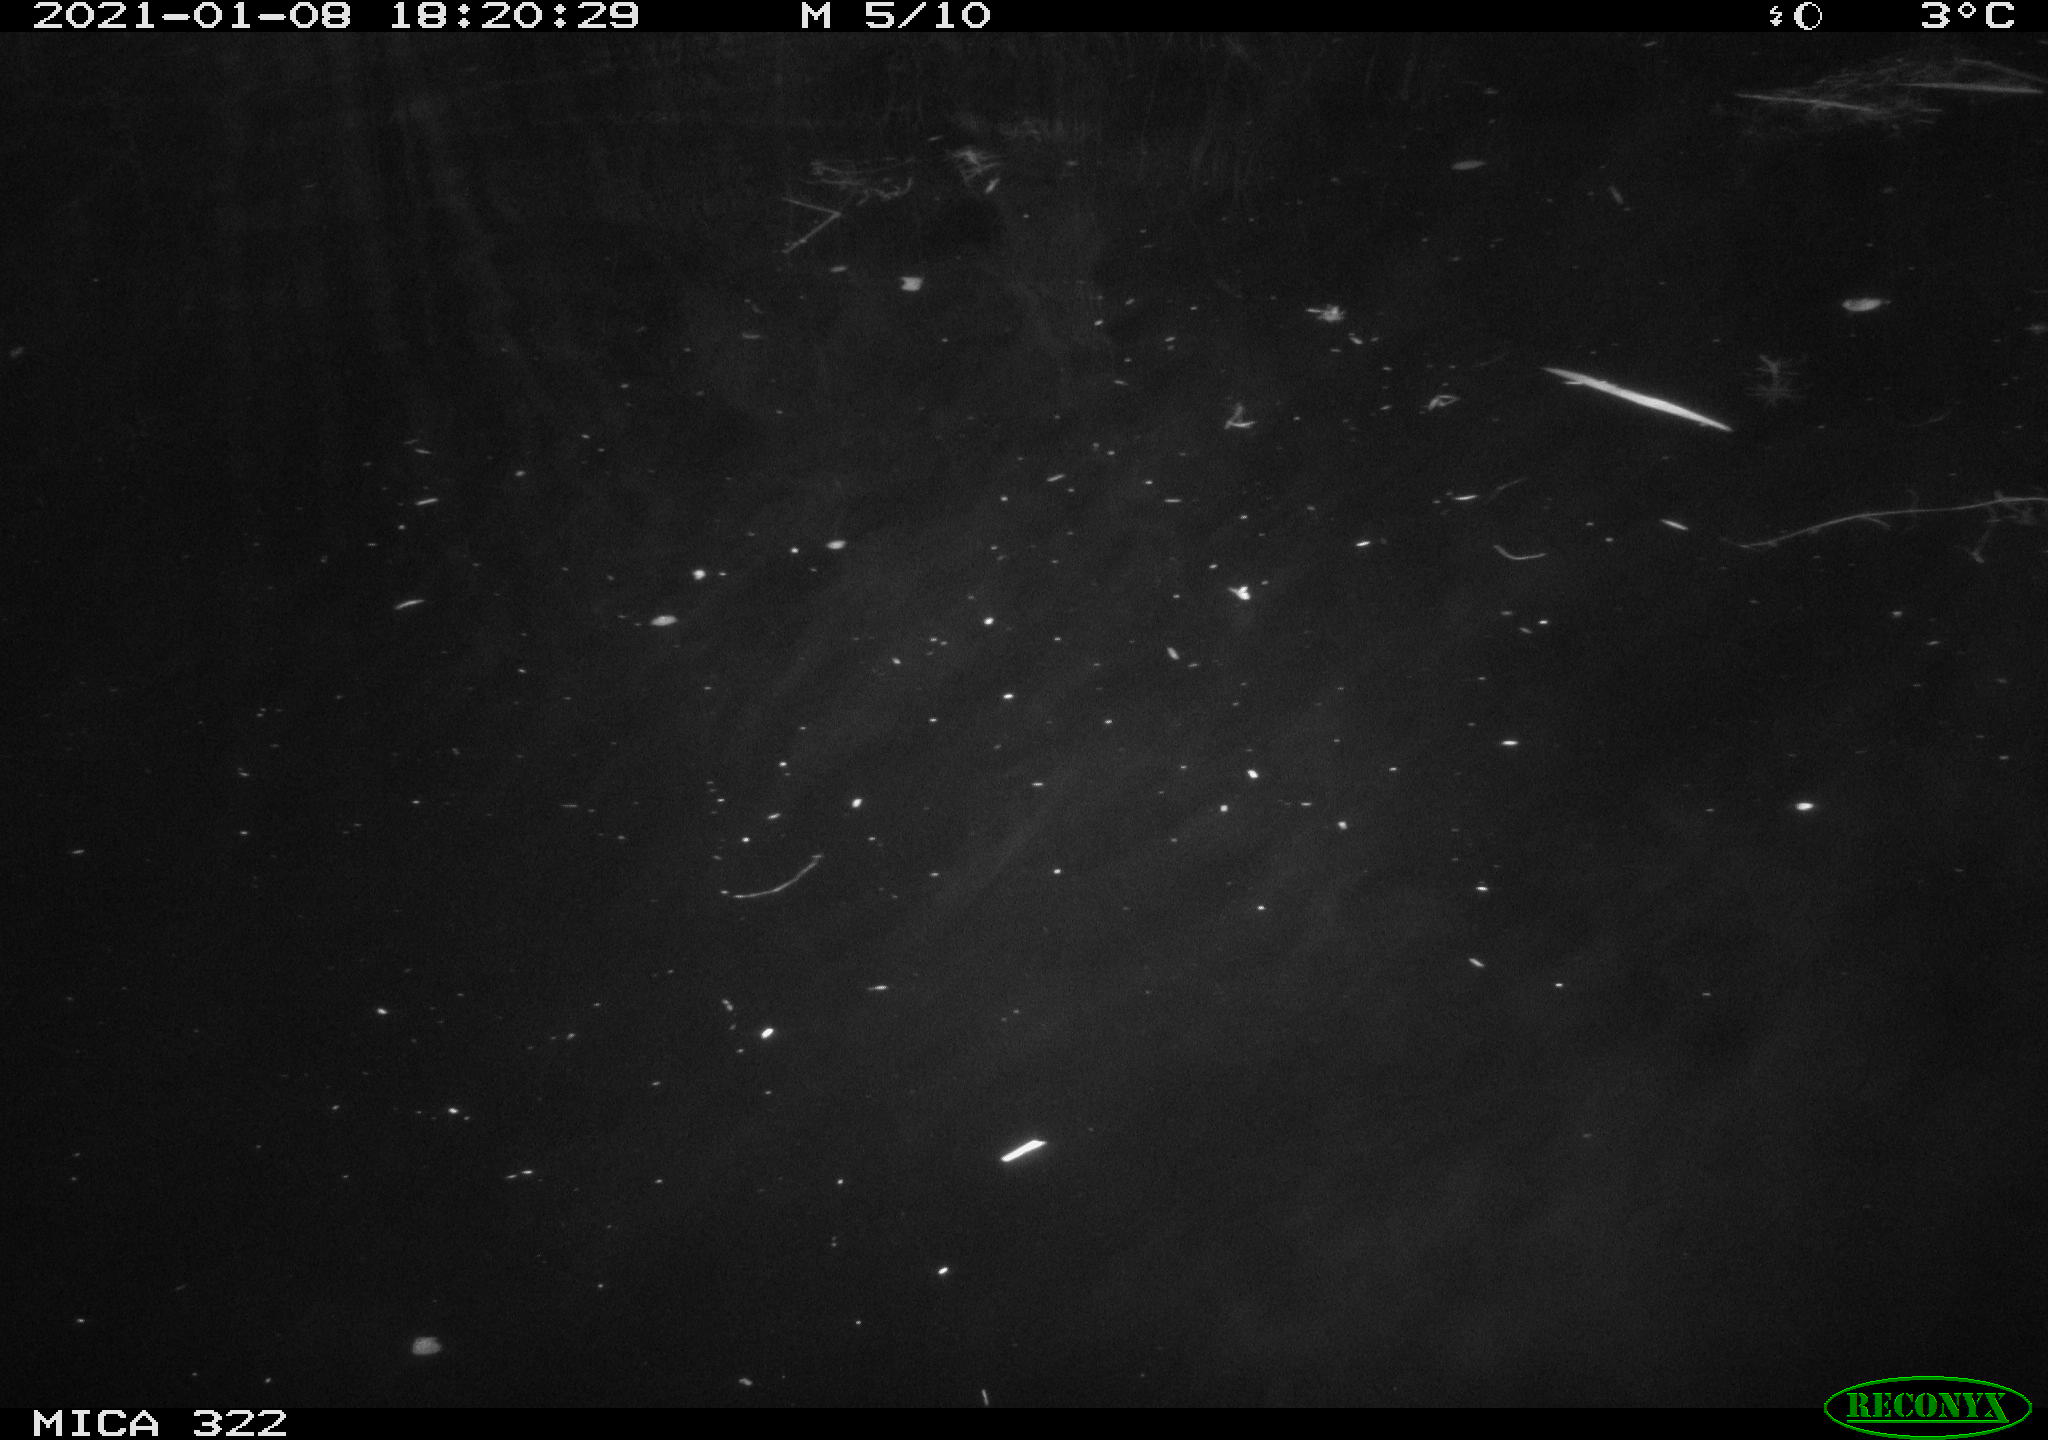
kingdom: Animalia
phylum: Chordata
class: Mammalia
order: Rodentia
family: Muridae
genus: Rattus
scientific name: Rattus norvegicus
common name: Brown rat
